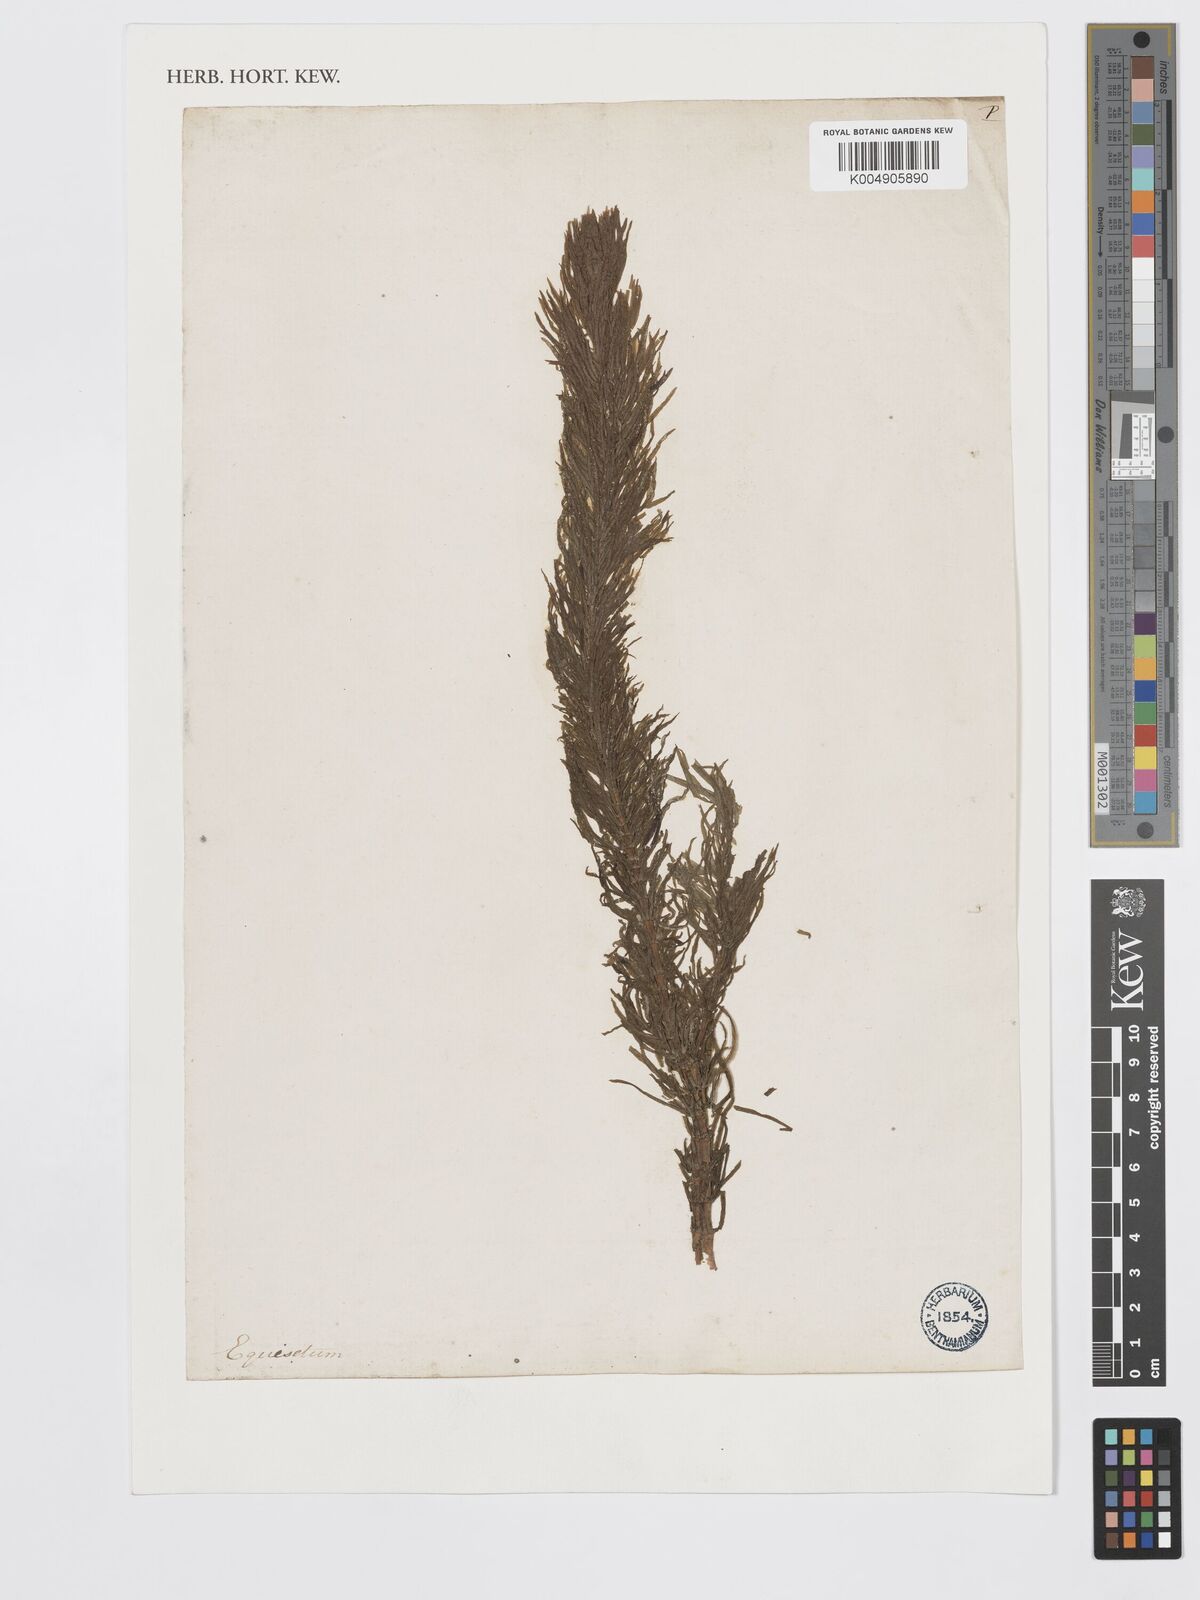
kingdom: Plantae
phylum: Tracheophyta
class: Magnoliopsida
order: Lamiales
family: Plantaginaceae
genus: Hippuris
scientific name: Hippuris
